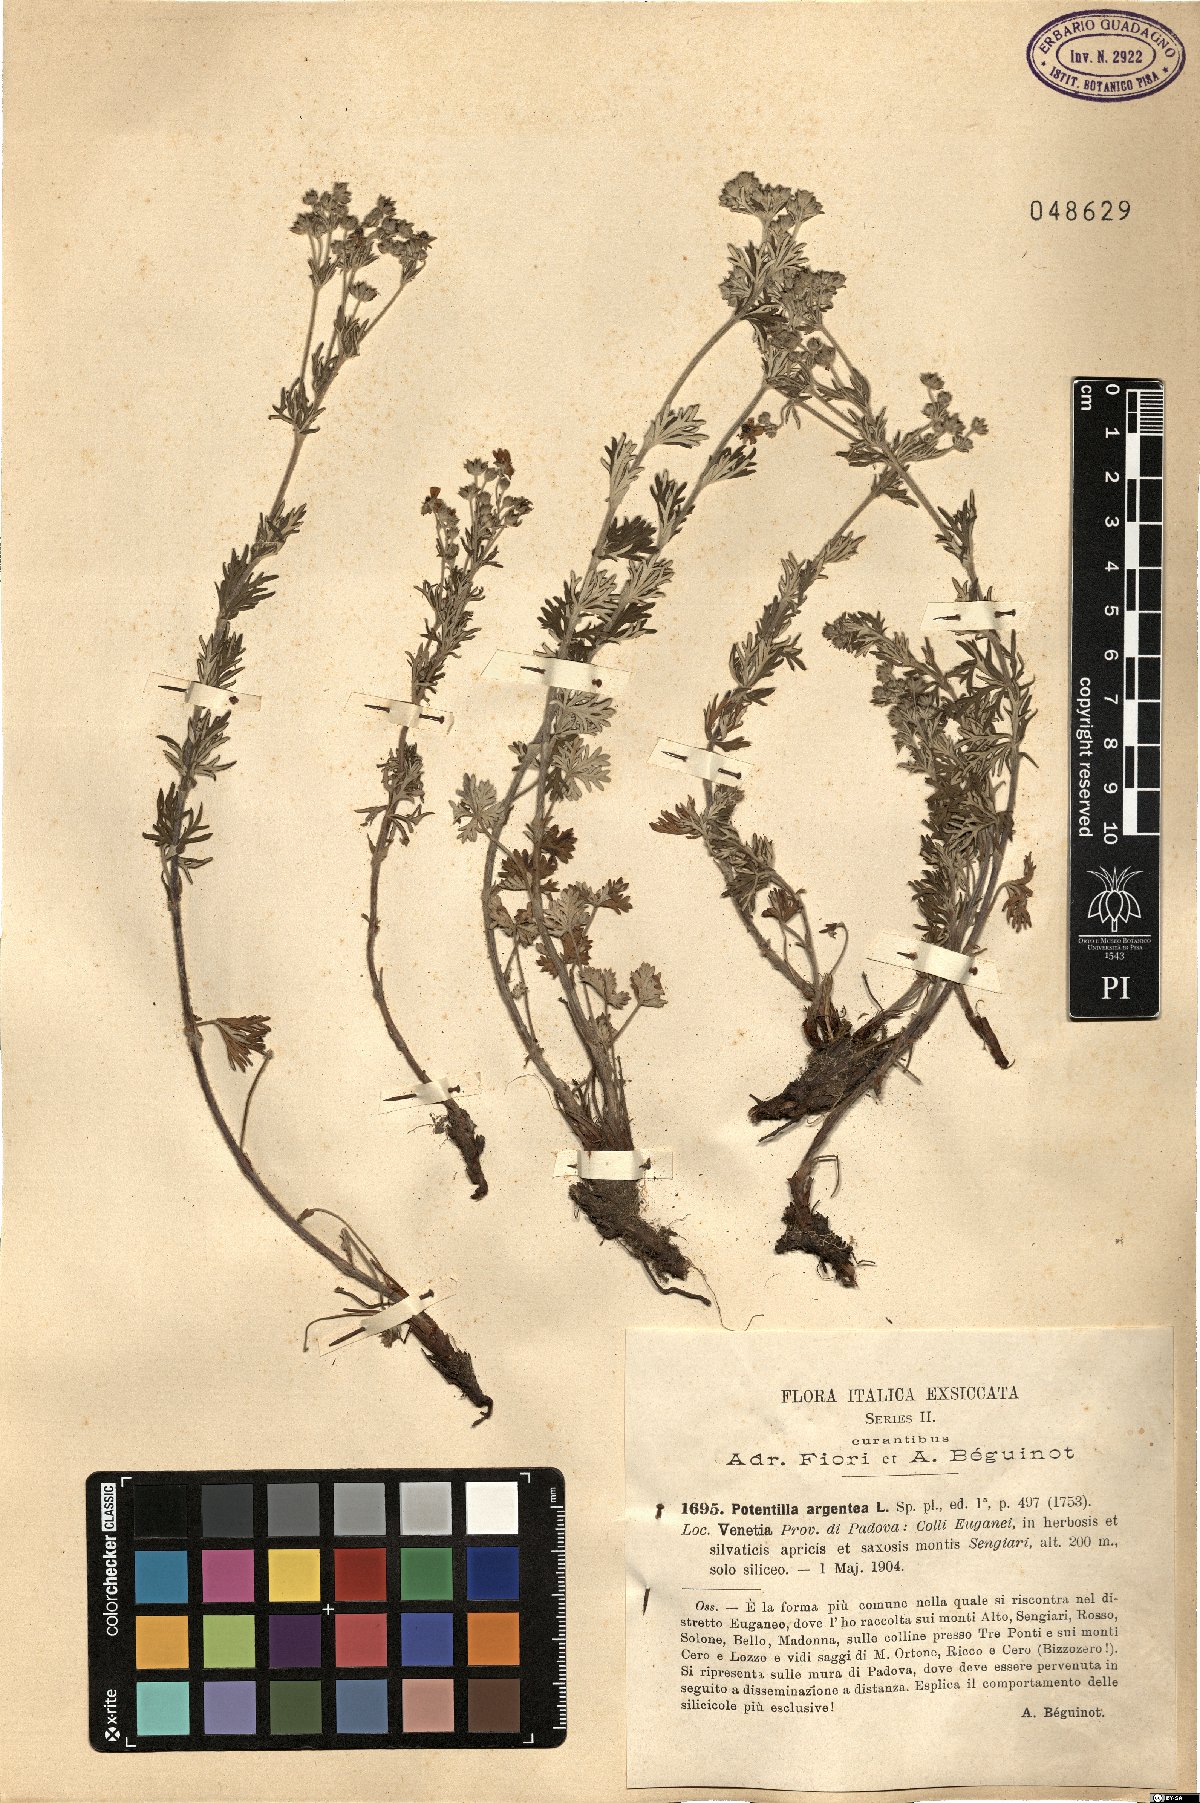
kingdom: Plantae
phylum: Tracheophyta
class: Magnoliopsida
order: Rosales
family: Rosaceae
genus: Potentilla
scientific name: Potentilla argentea
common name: Hoary cinquefoil
